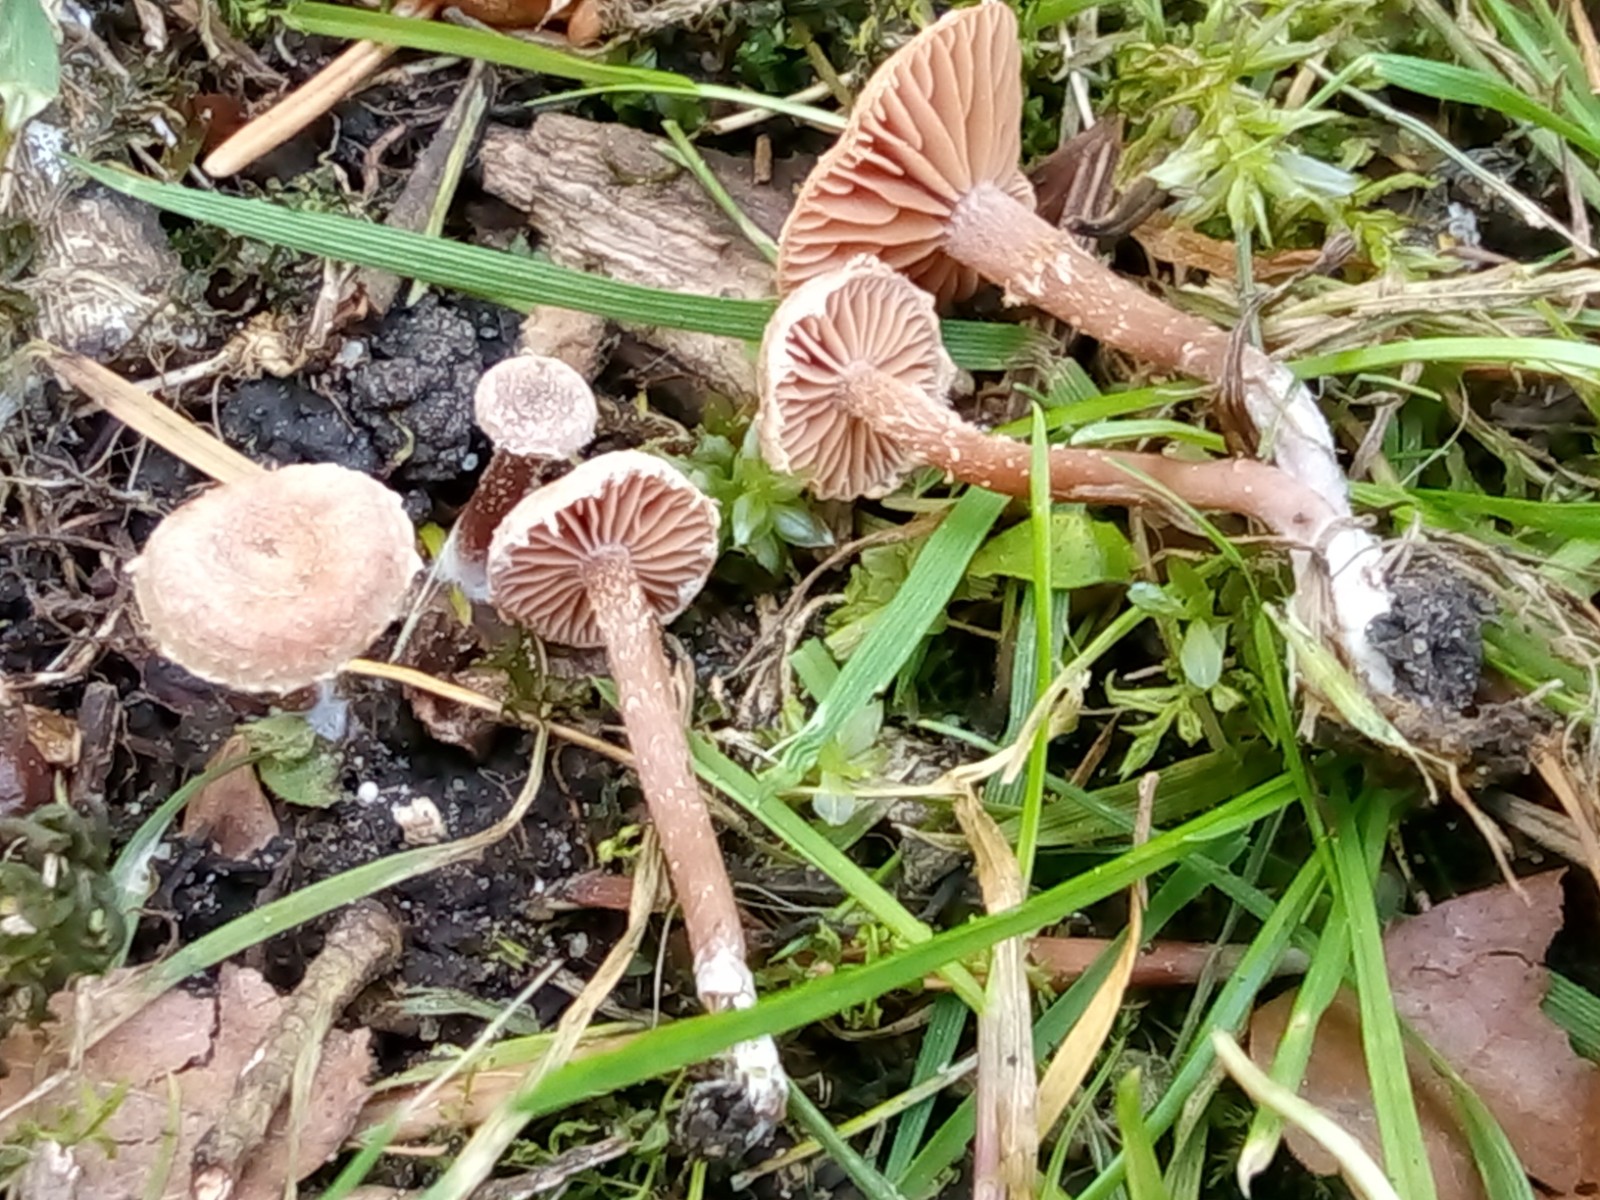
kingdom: Fungi
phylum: Basidiomycota
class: Agaricomycetes
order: Agaricales
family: Tubariaceae
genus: Tubaria
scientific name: Tubaria conspersa
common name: bleg fnughat
